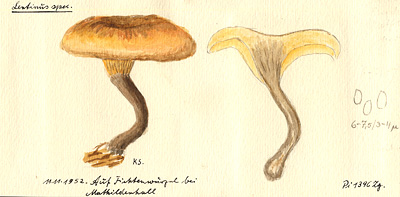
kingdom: Plantae
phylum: Tracheophyta
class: Pinopsida
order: Pinales
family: Pinaceae
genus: Picea
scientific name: Picea abies
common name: Norway spruce
